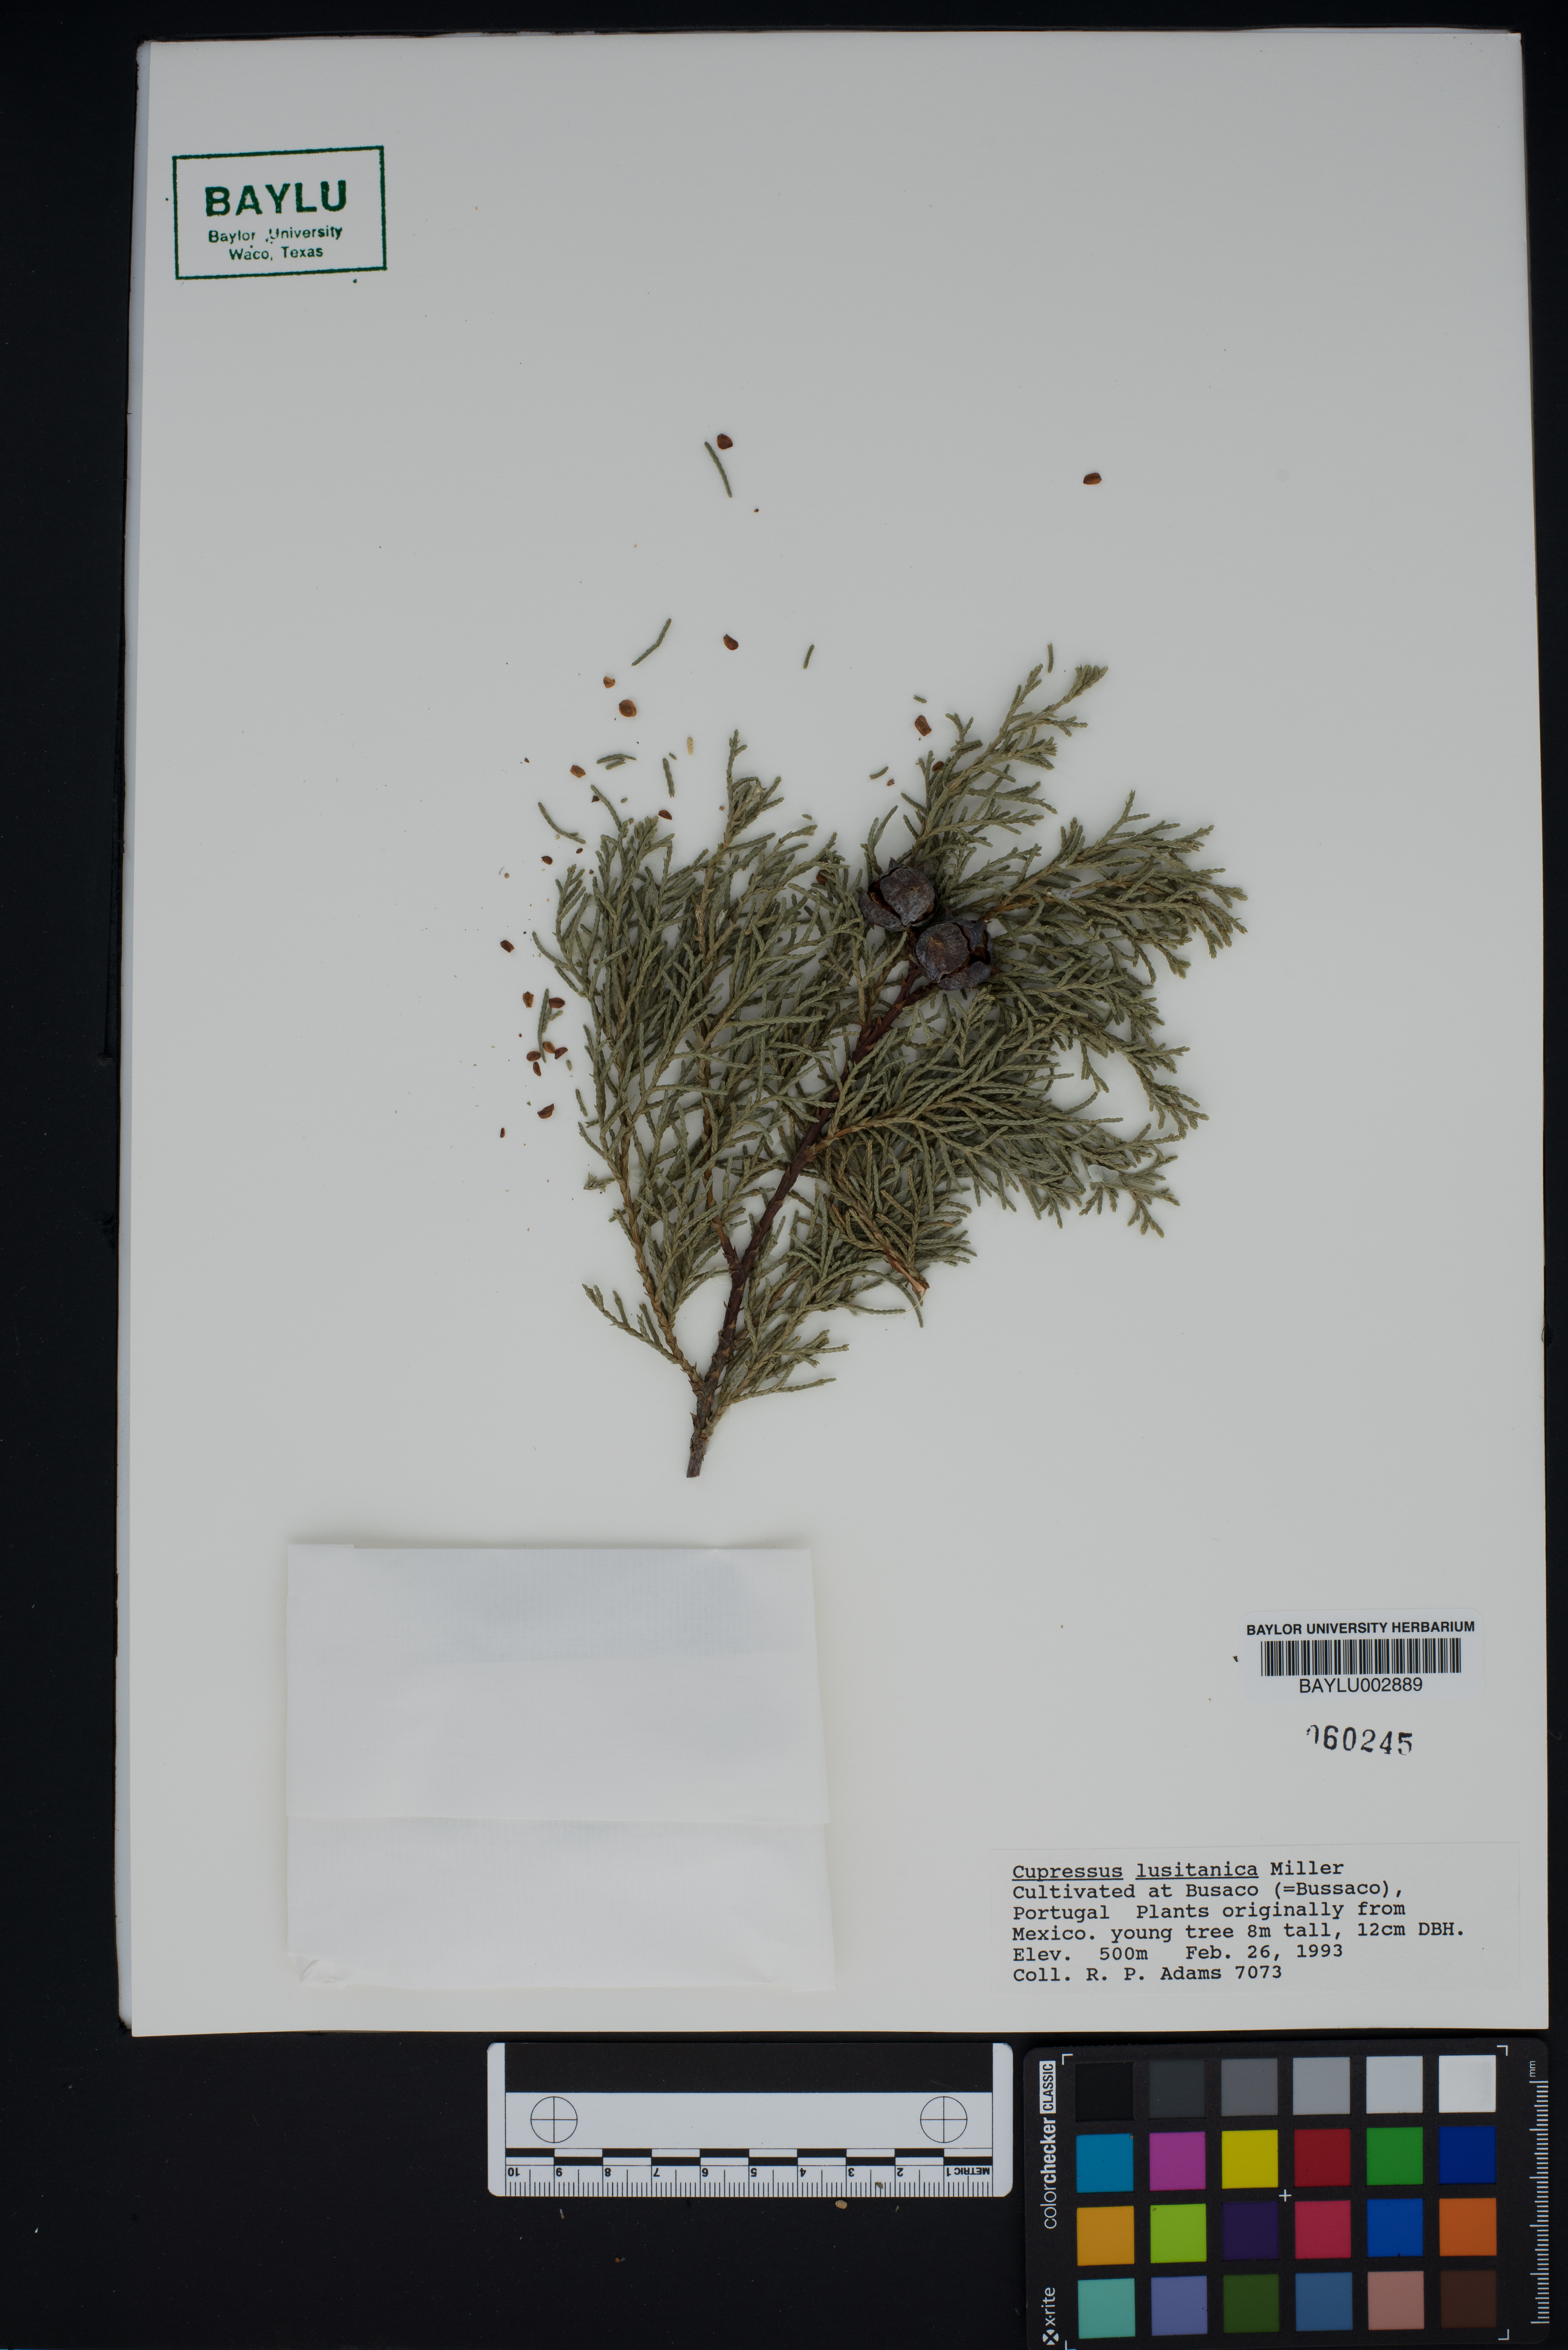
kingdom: Plantae
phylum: Tracheophyta
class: Pinopsida
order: Pinales
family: Cupressaceae
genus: Cupressus
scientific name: Cupressus lusitanica
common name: Mexican cypress
